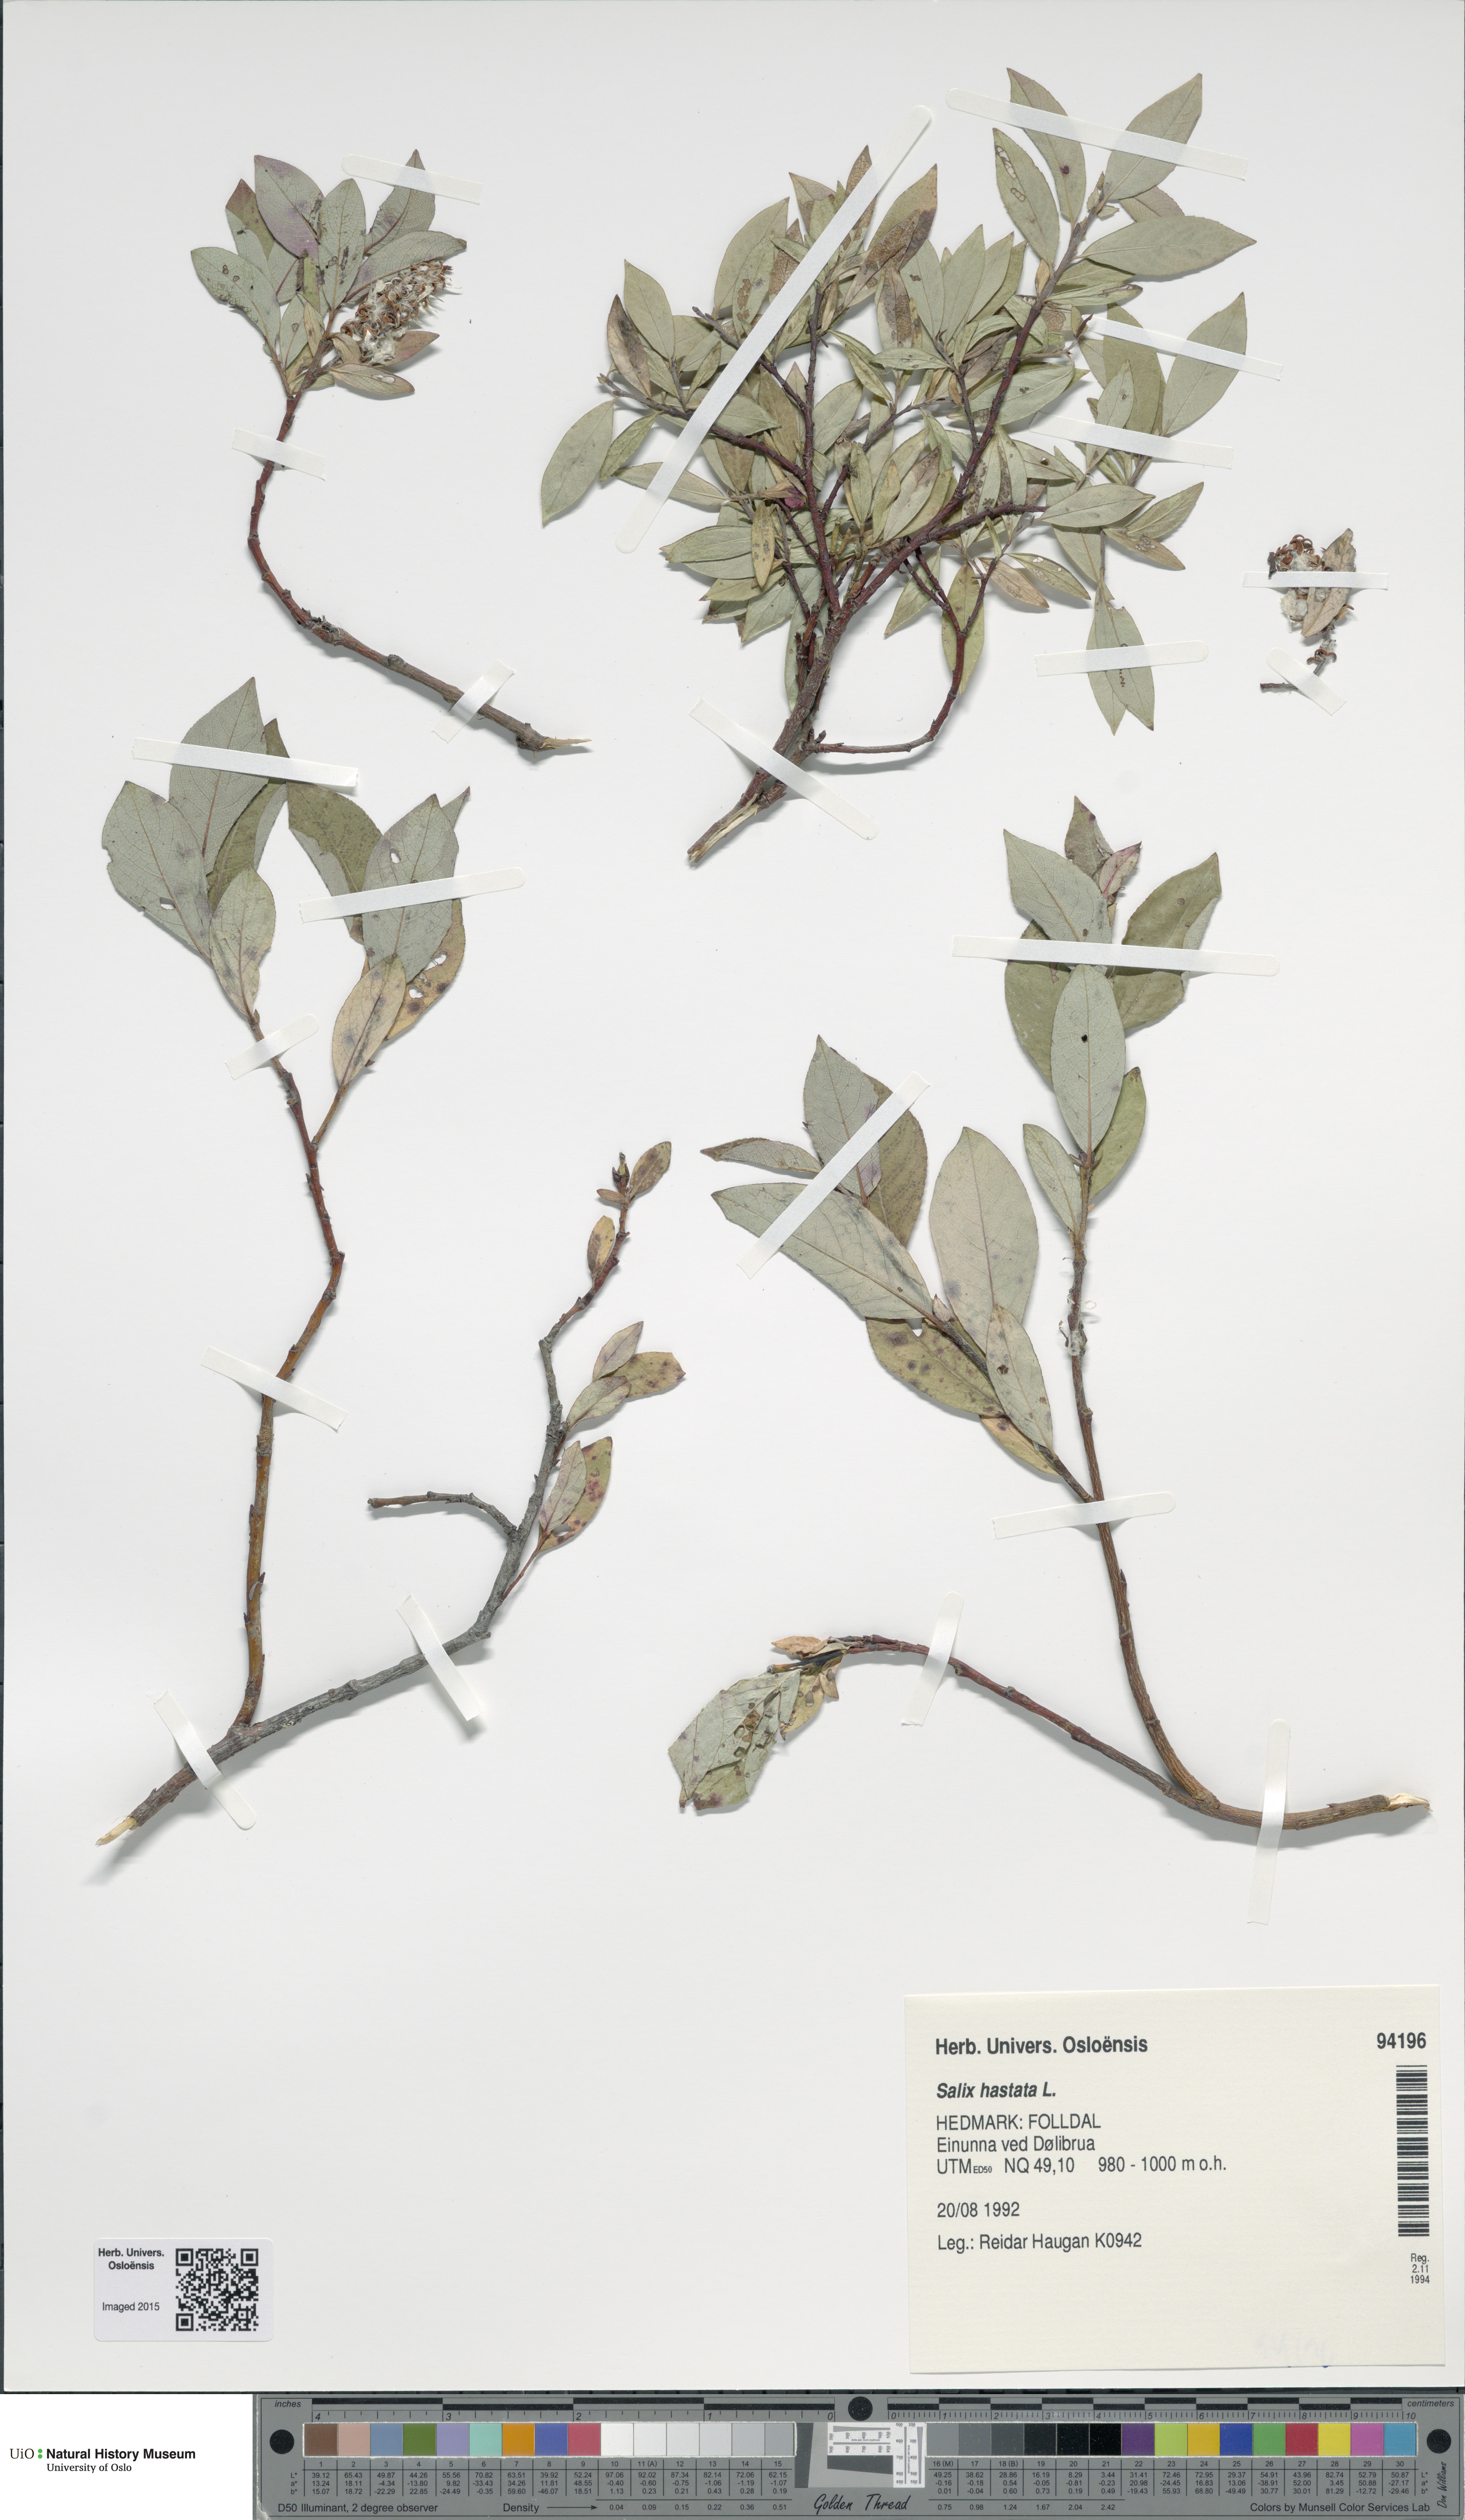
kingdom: Plantae
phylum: Tracheophyta
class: Magnoliopsida
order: Malpighiales
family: Salicaceae
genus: Salix
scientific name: Salix hastata
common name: Halberd willow
